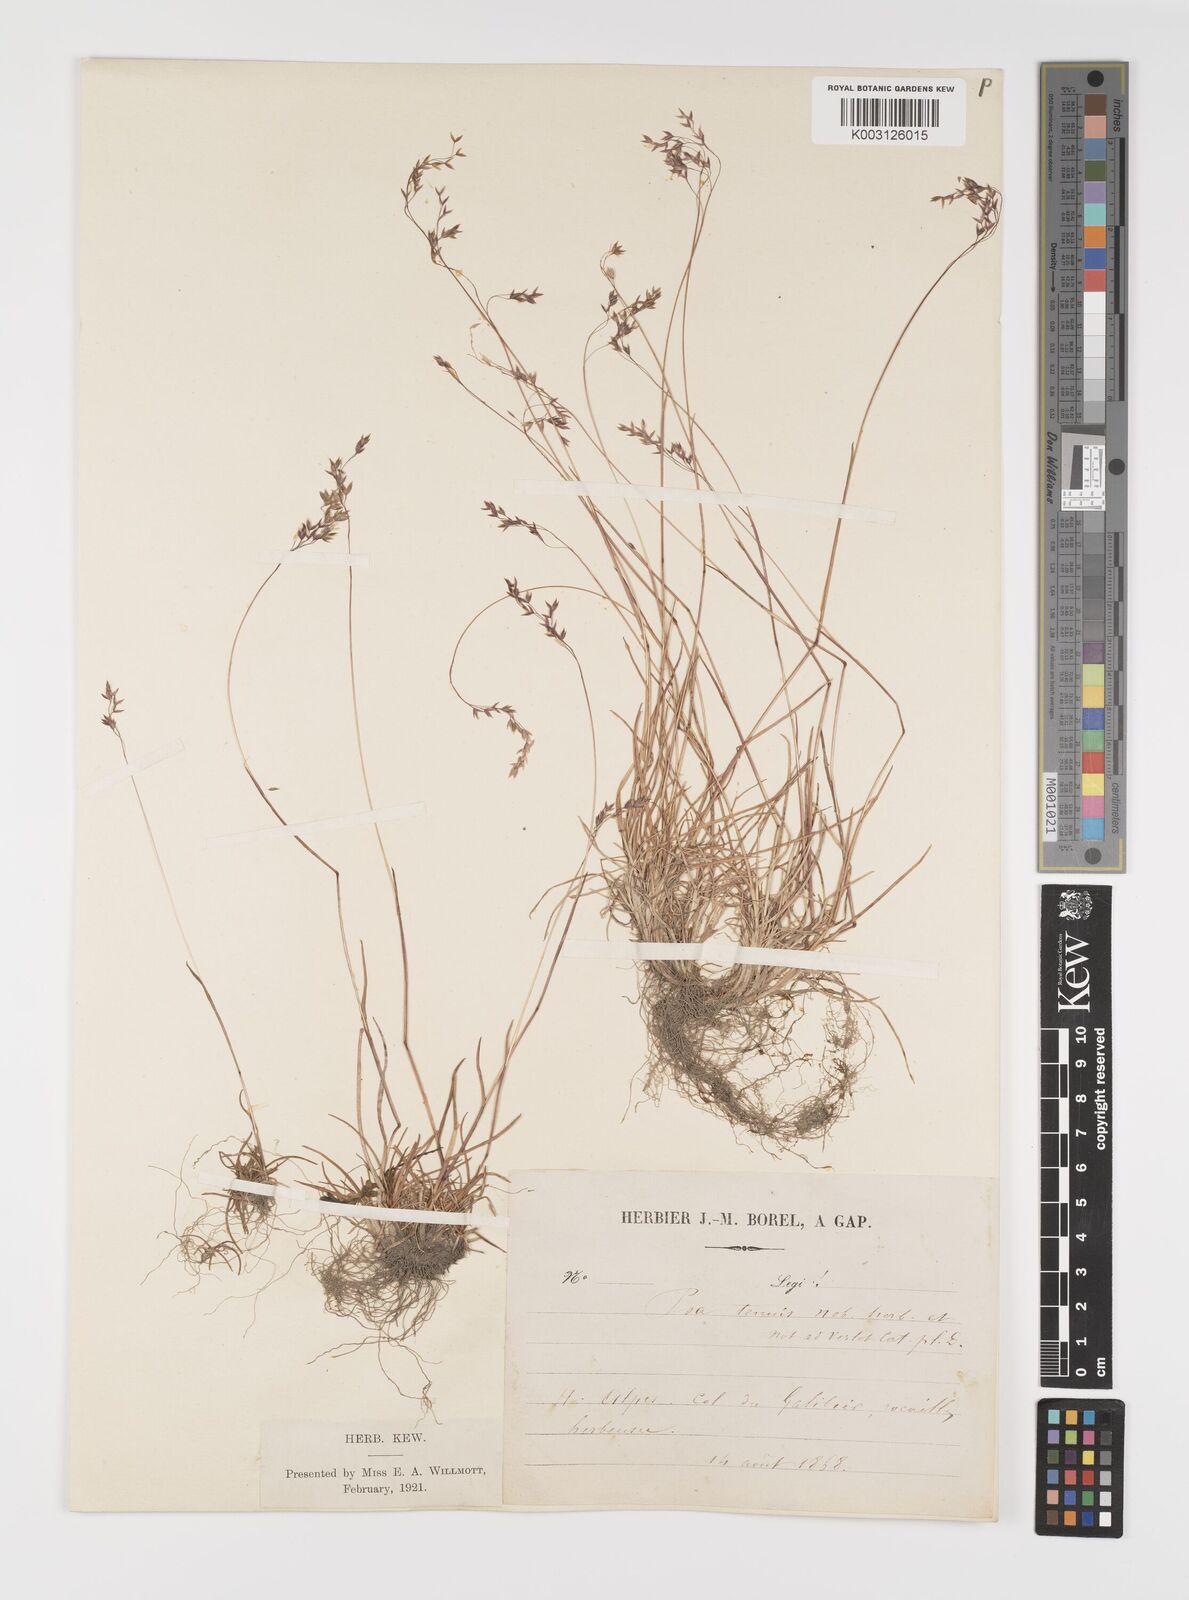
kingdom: Plantae
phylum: Tracheophyta
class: Liliopsida
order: Poales
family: Poaceae
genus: Poa
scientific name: Poa minor
